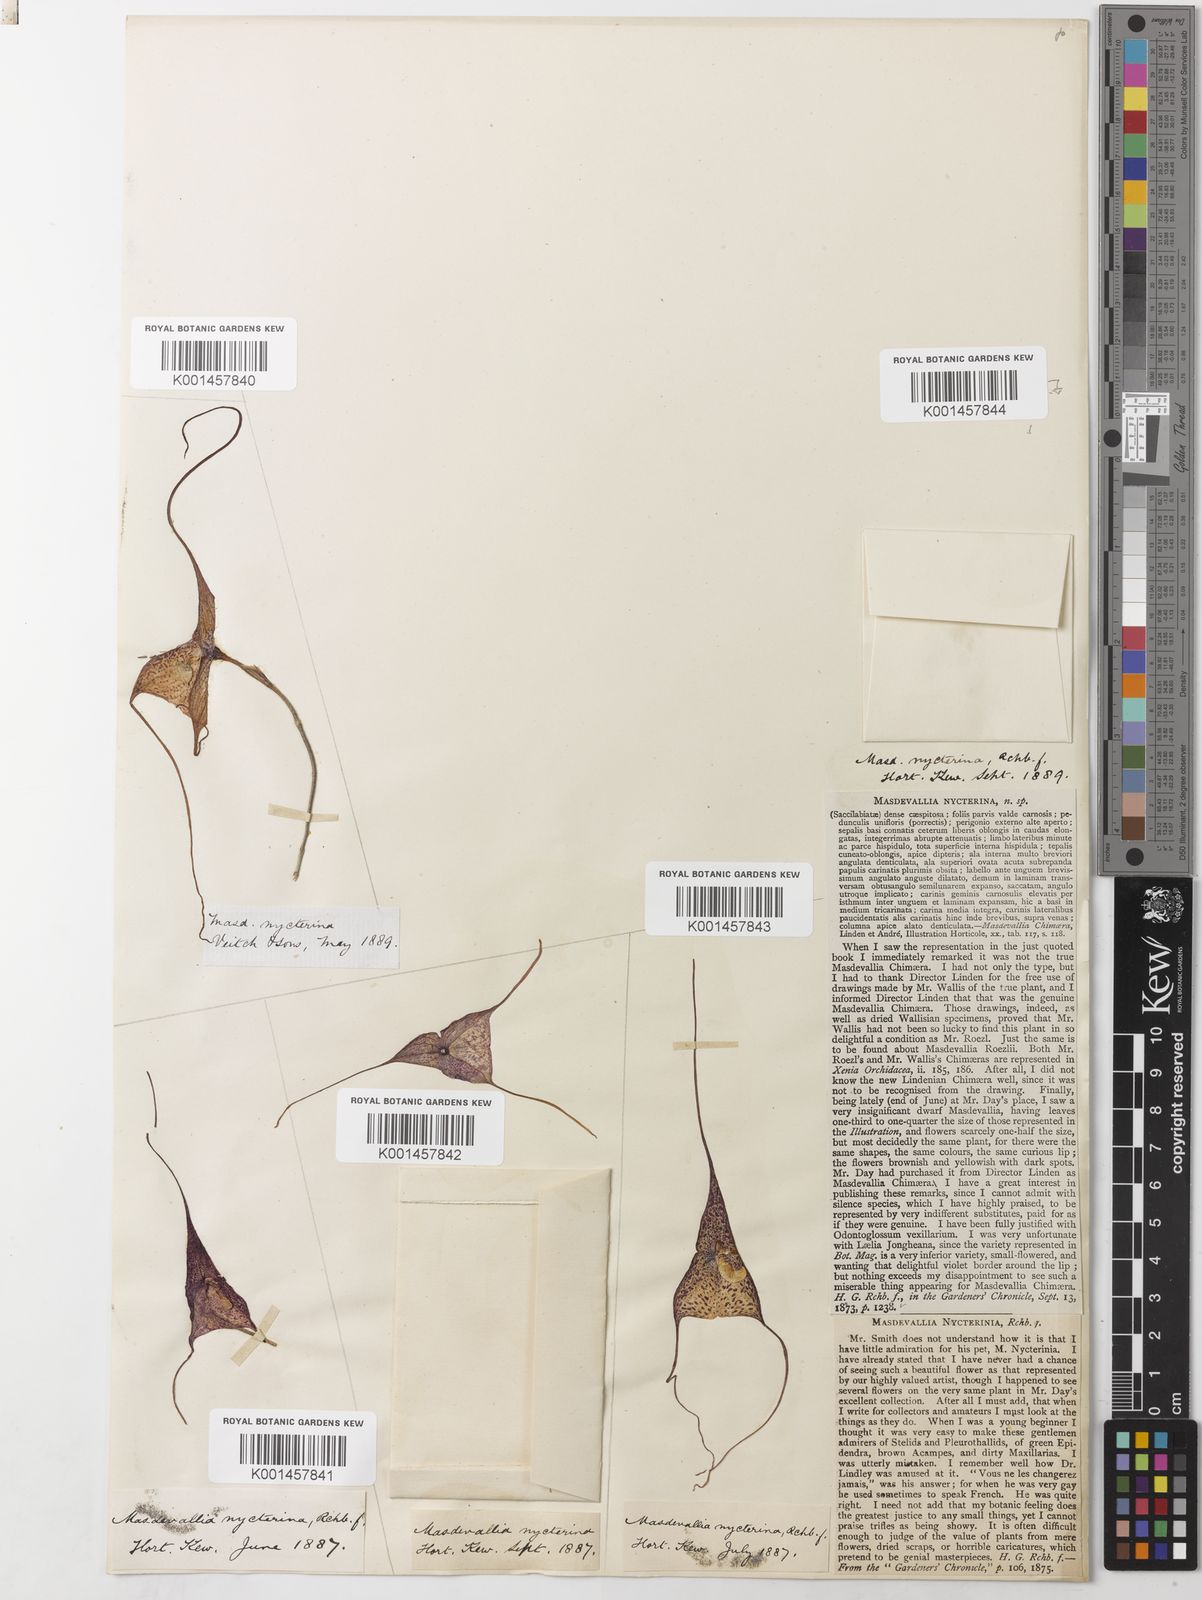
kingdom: Plantae
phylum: Tracheophyta
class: Liliopsida
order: Asparagales
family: Orchidaceae
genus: Dracula
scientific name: Dracula nycterina
